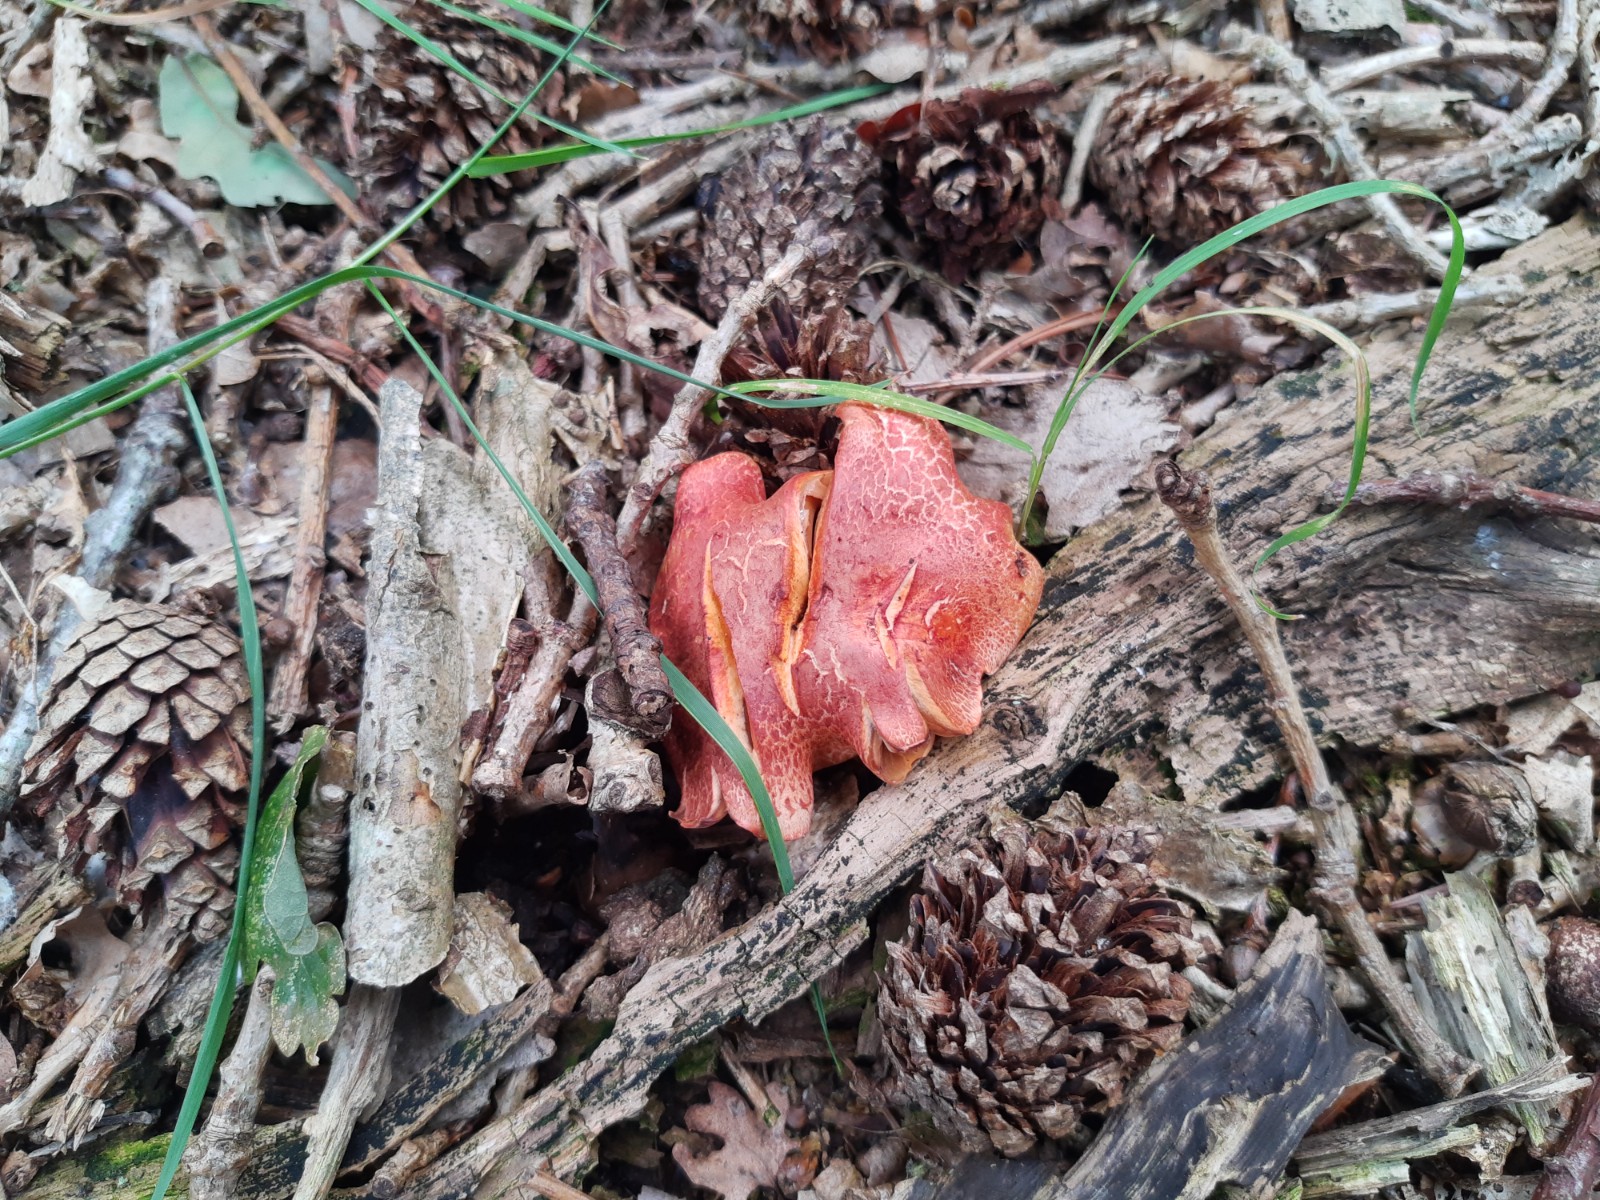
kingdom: Fungi
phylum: Basidiomycota
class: Agaricomycetes
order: Agaricales
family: Cortinariaceae
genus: Cortinarius
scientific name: Cortinarius bolaris
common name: cinnoberskællet slørhat
